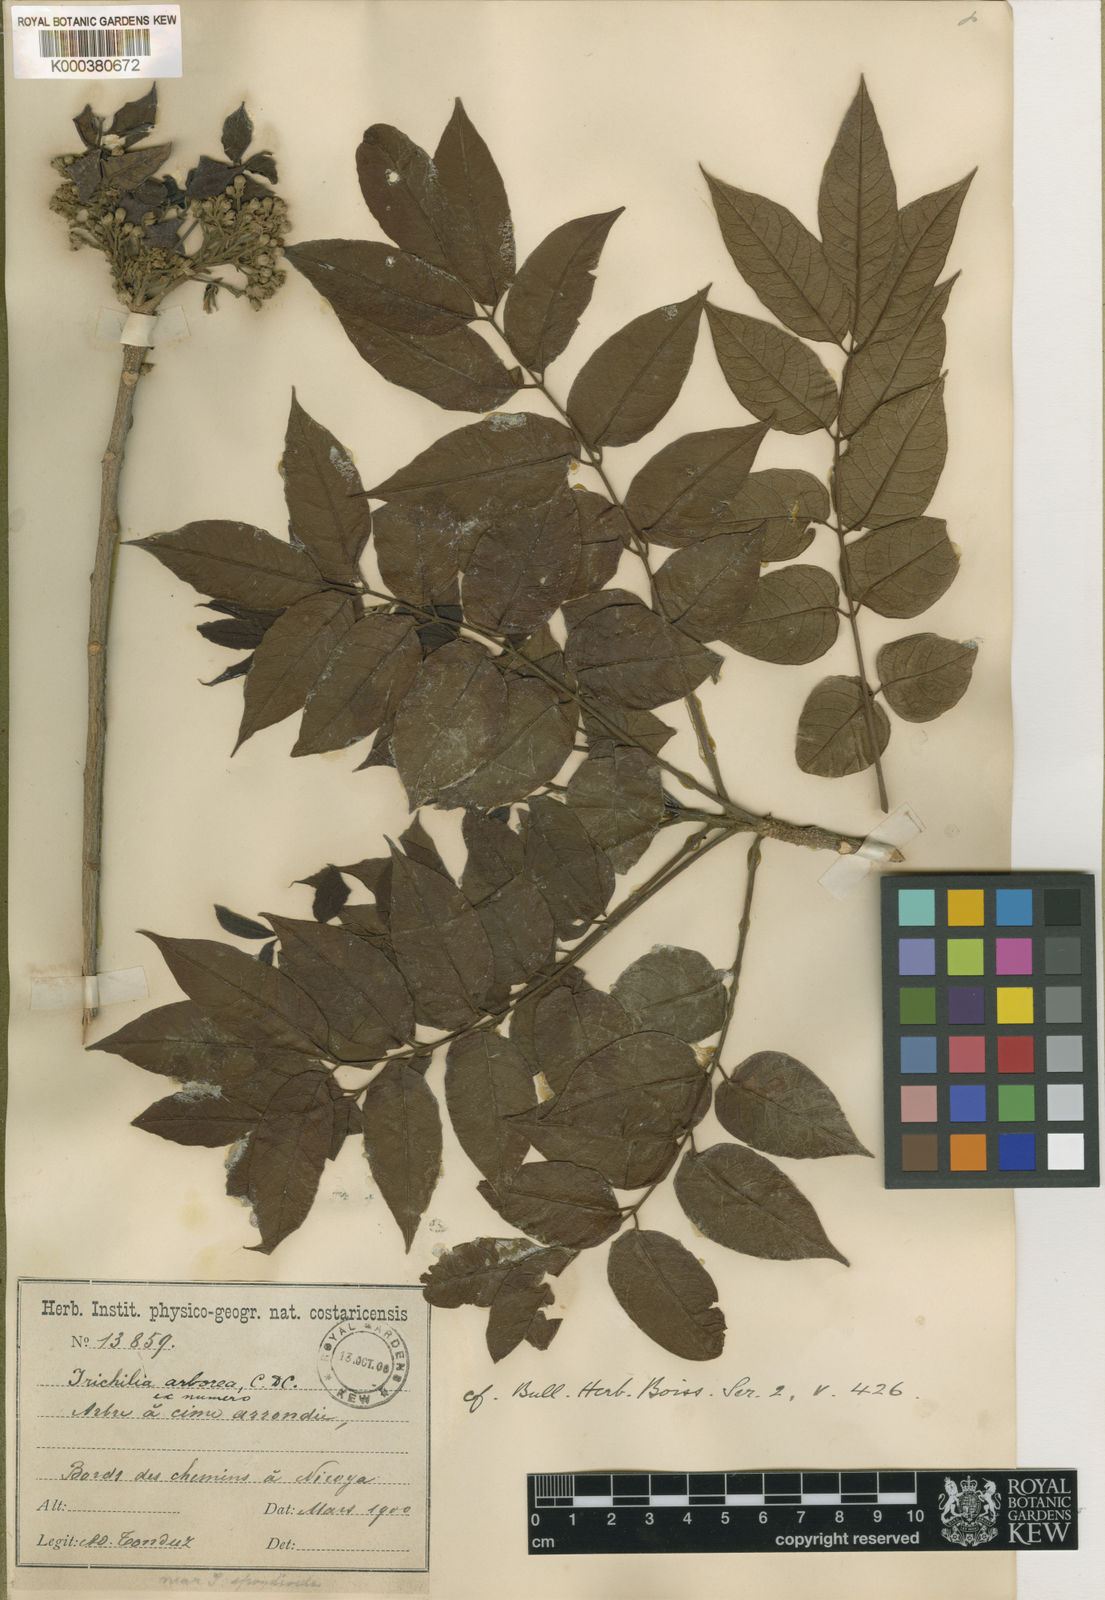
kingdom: Plantae
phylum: Tracheophyta
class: Magnoliopsida
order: Sapindales
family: Meliaceae
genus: Trichilia
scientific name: Trichilia glabra
